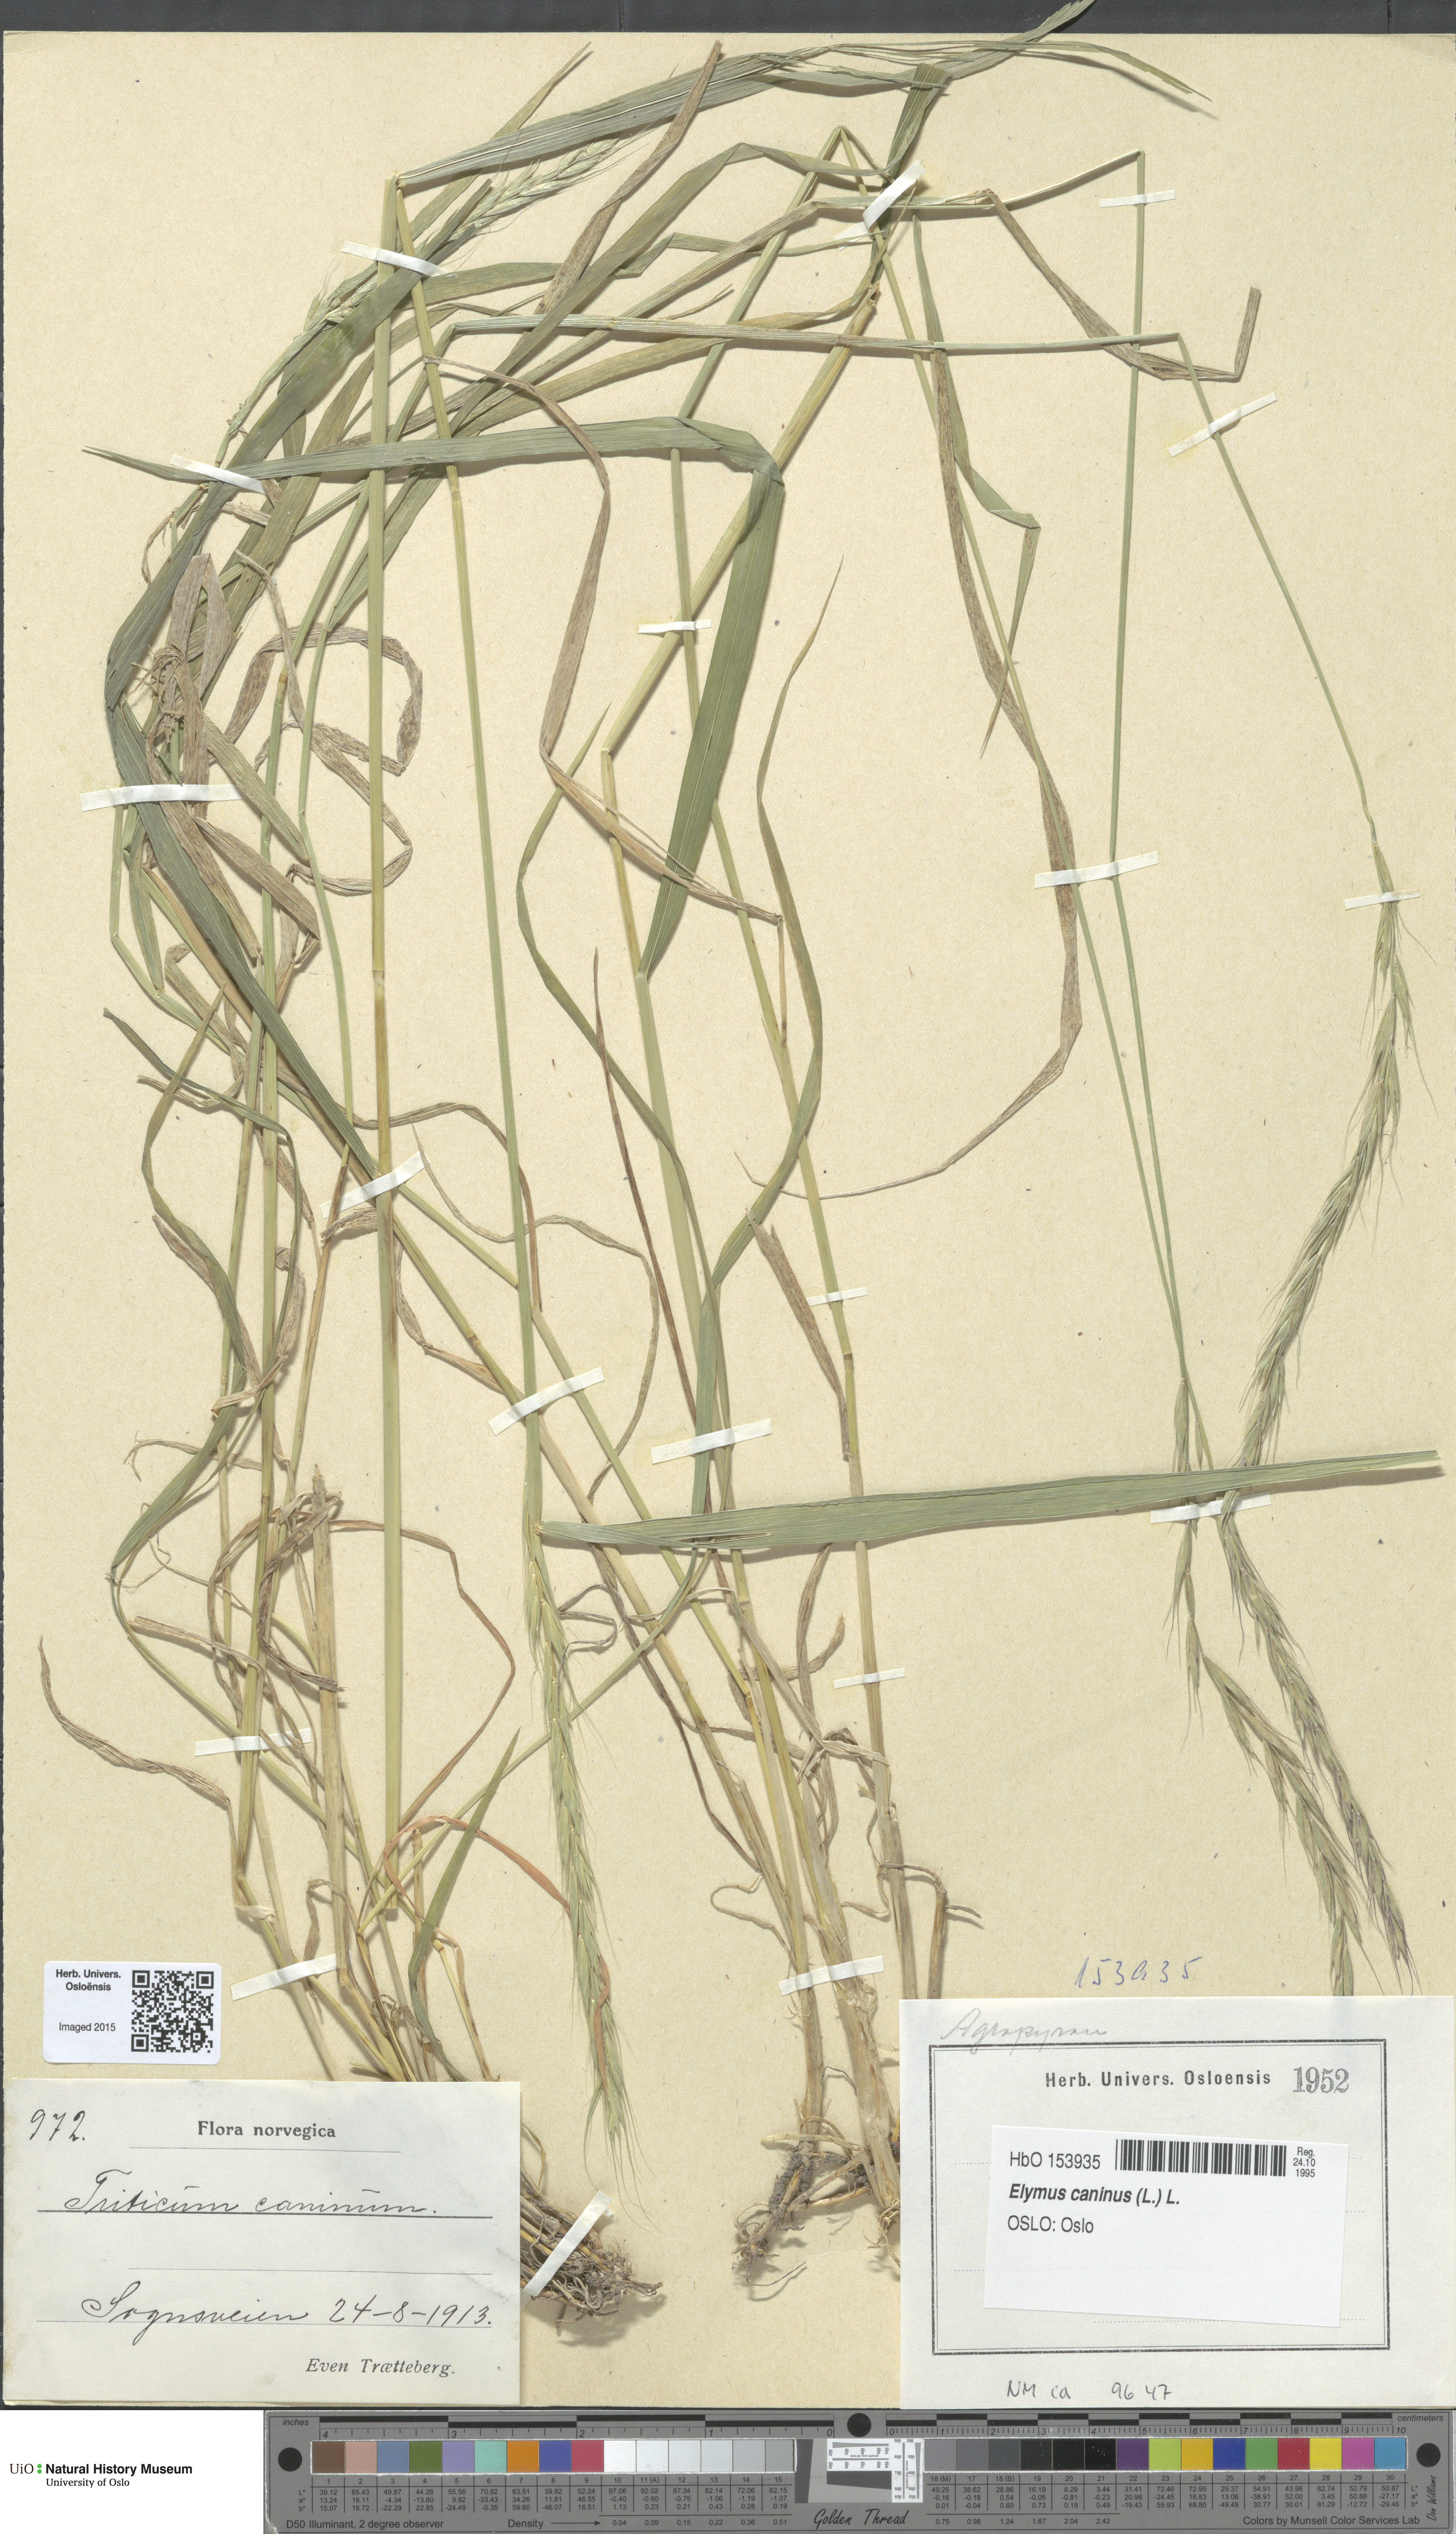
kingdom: Plantae
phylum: Tracheophyta
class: Liliopsida
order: Poales
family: Poaceae
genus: Elymus
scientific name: Elymus caninus
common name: Bearded couch
